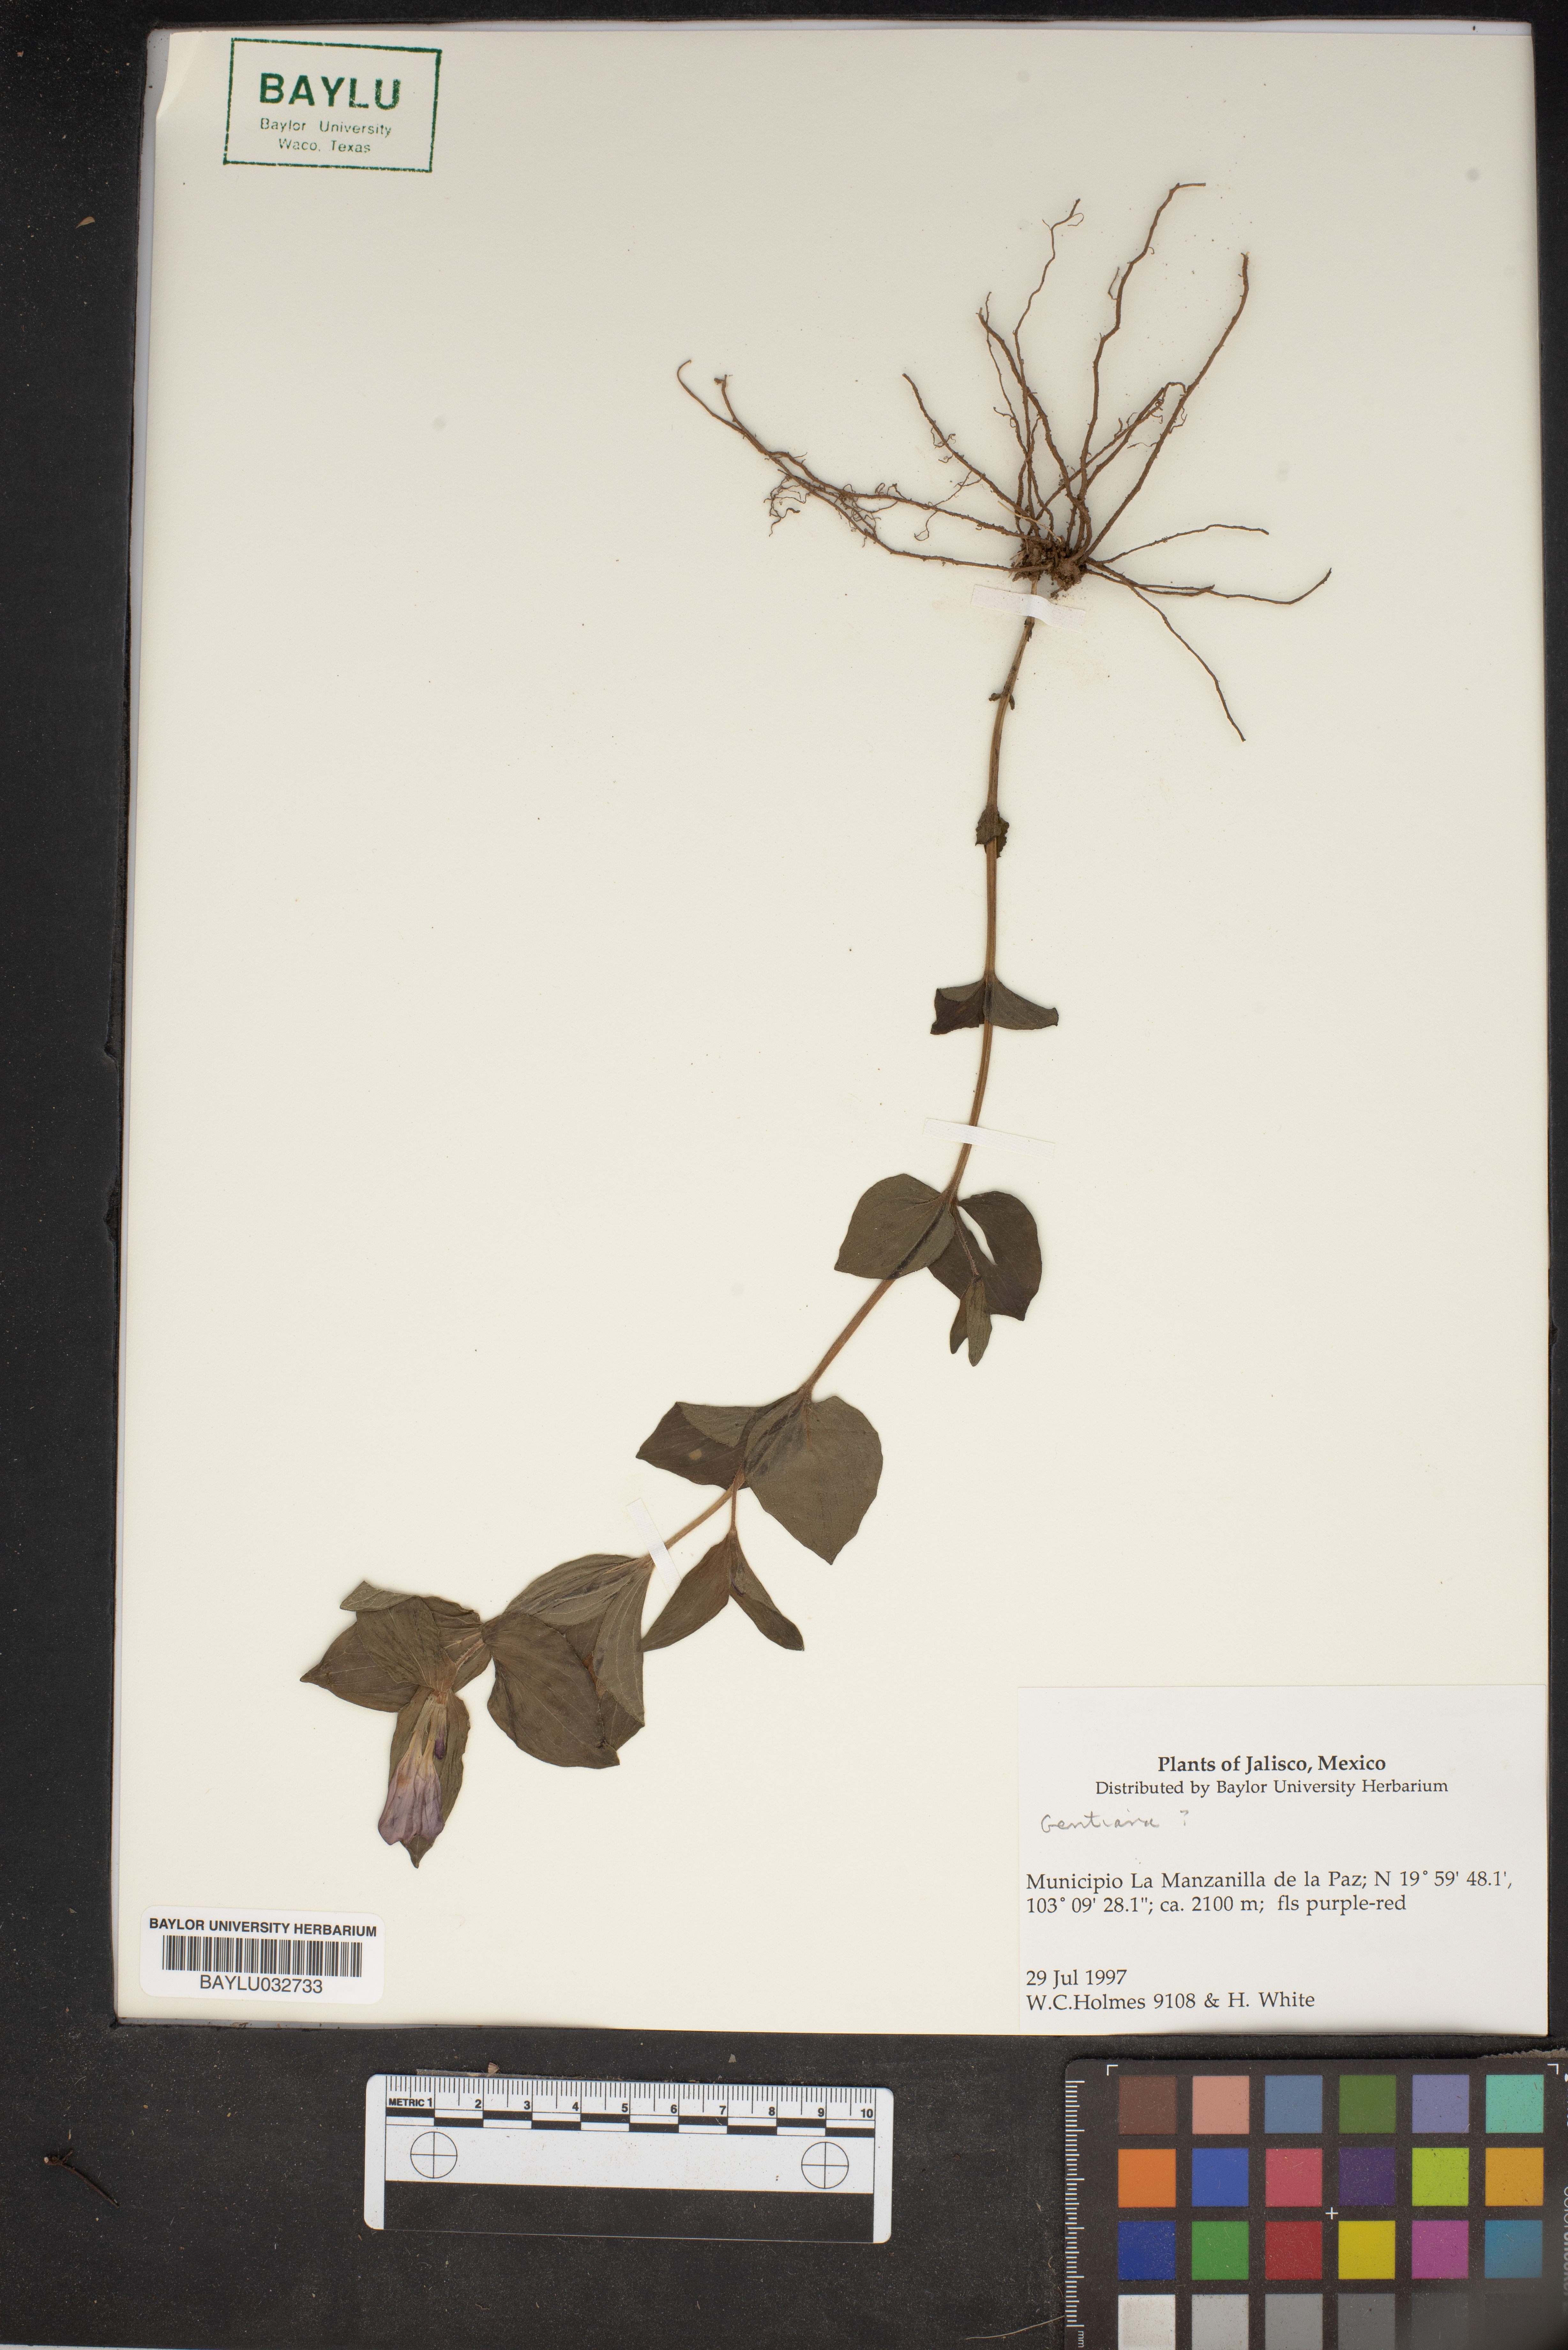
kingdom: Plantae
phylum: Tracheophyta
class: Magnoliopsida
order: Gentianales
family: Gentianaceae
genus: Gentiana
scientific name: Gentiana
